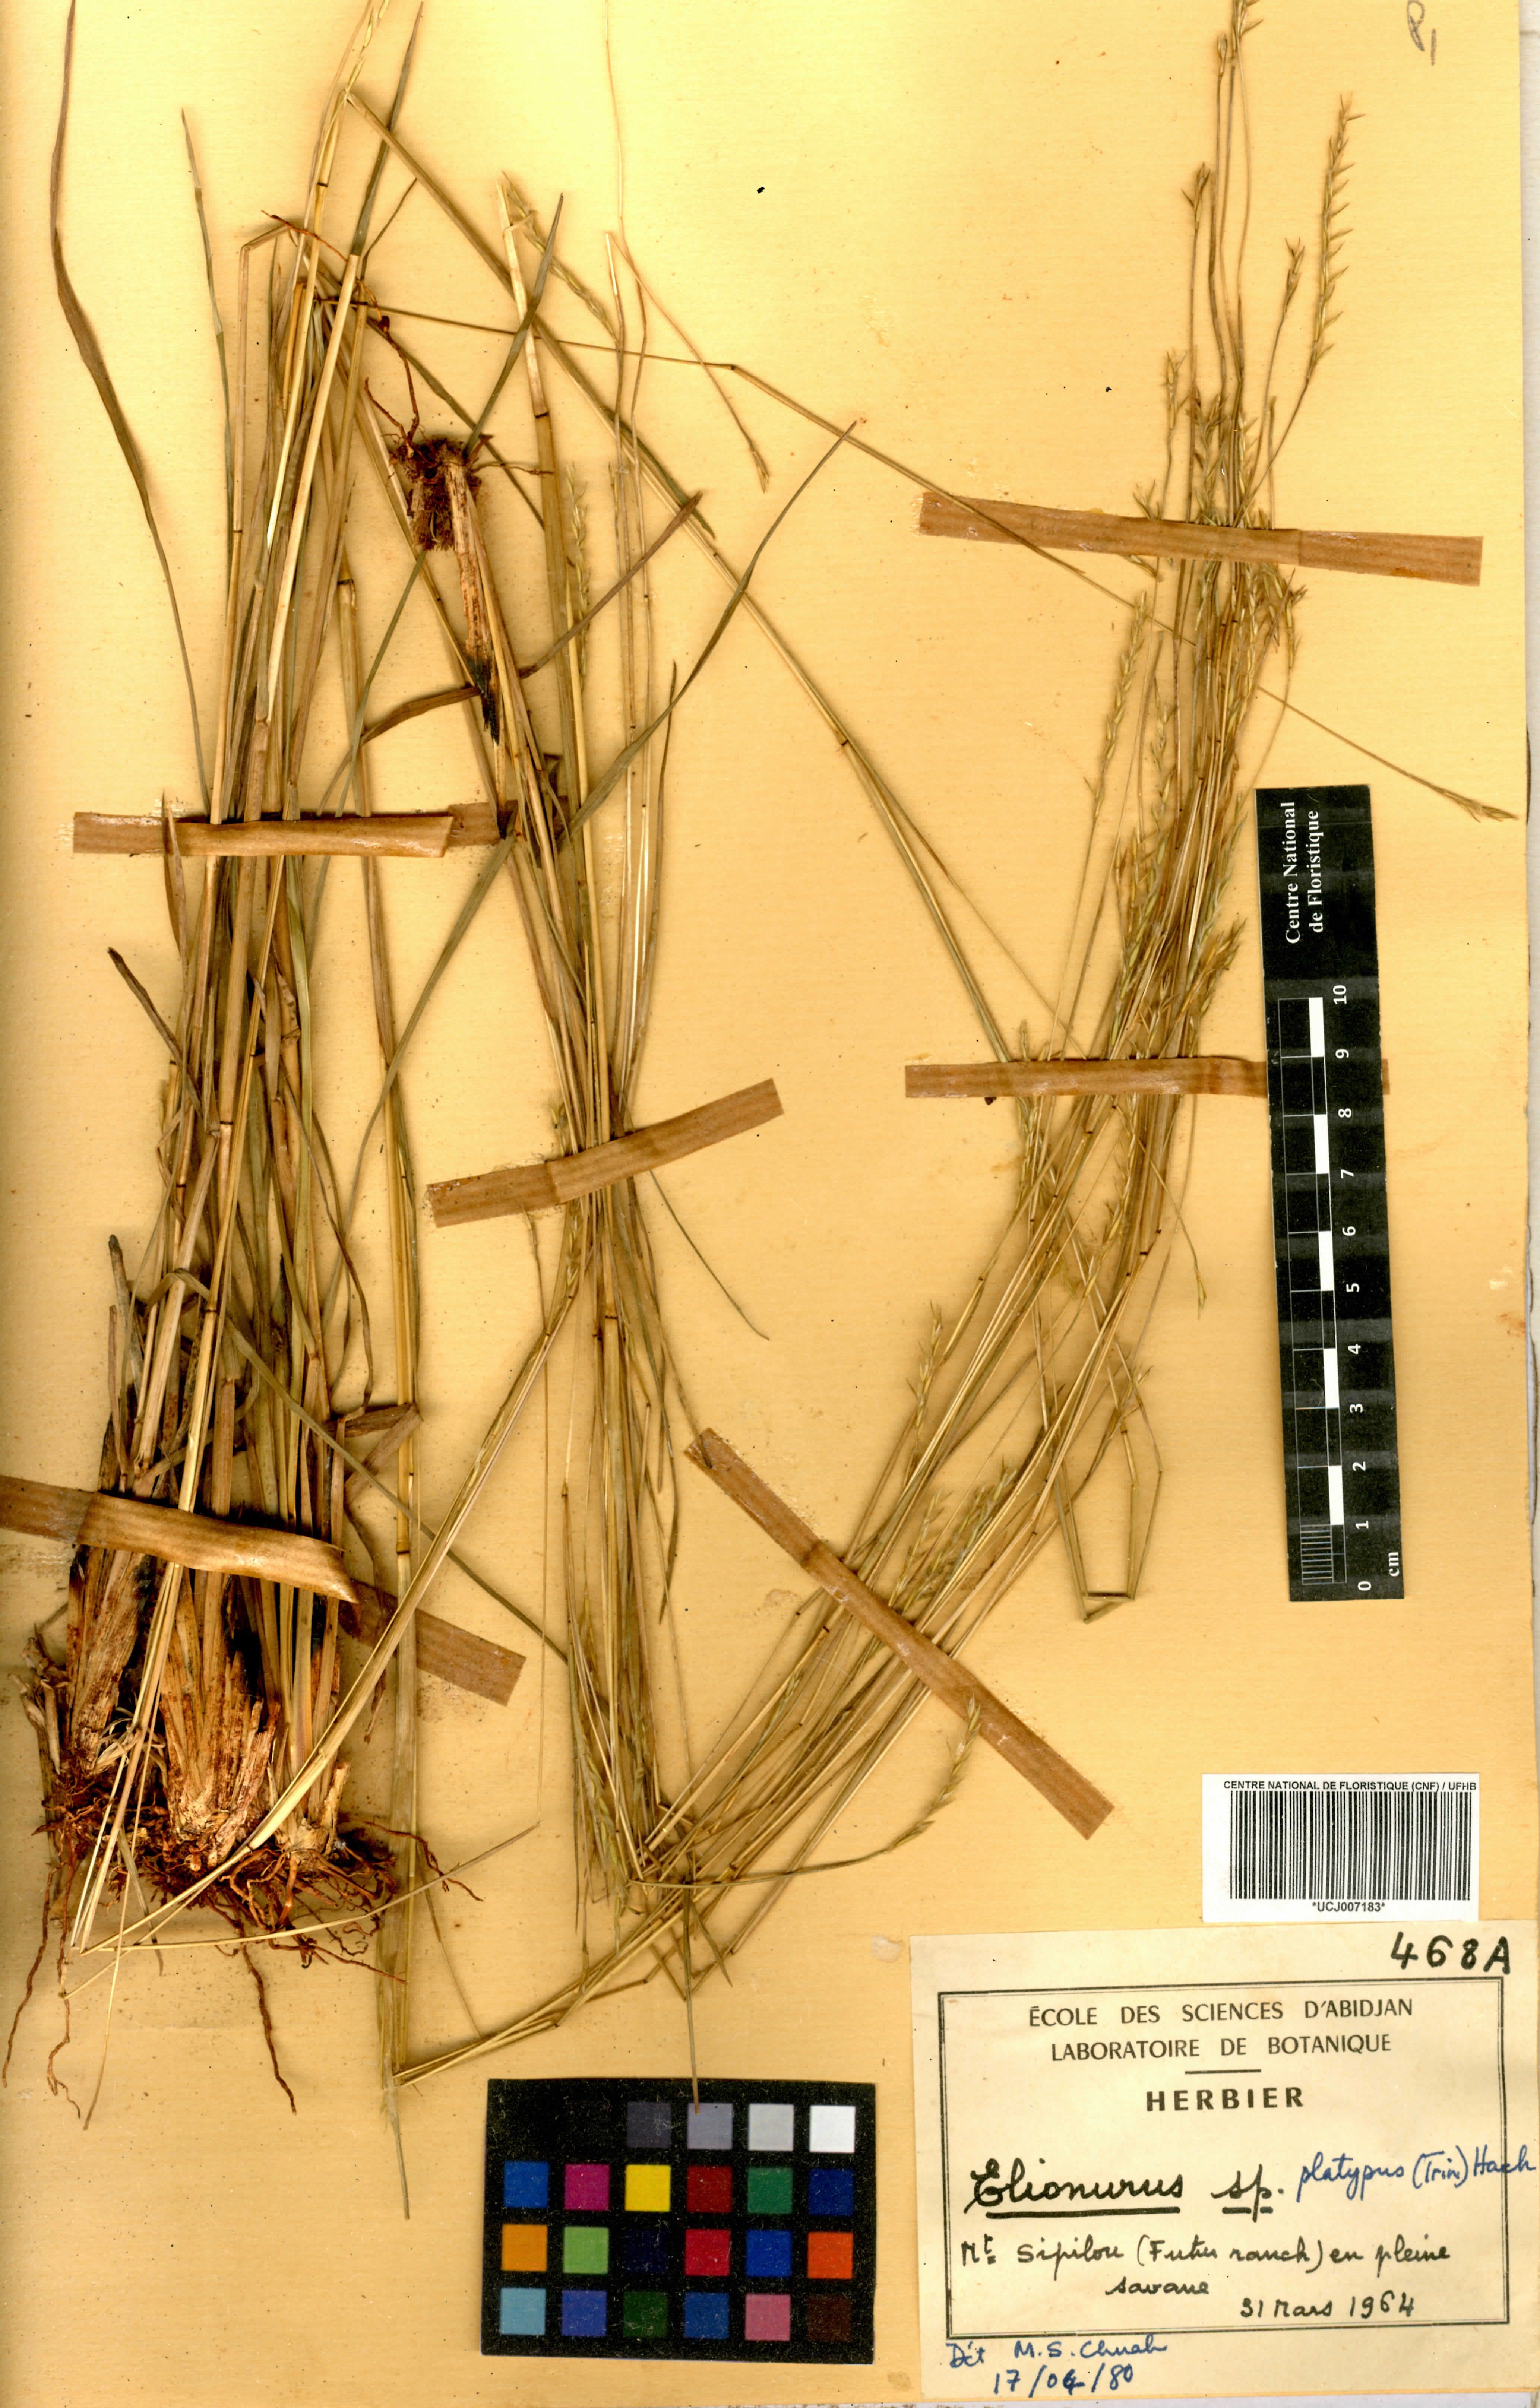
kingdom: Plantae
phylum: Tracheophyta
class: Liliopsida
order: Poales
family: Poaceae
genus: Elionurus
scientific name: Elionurus
